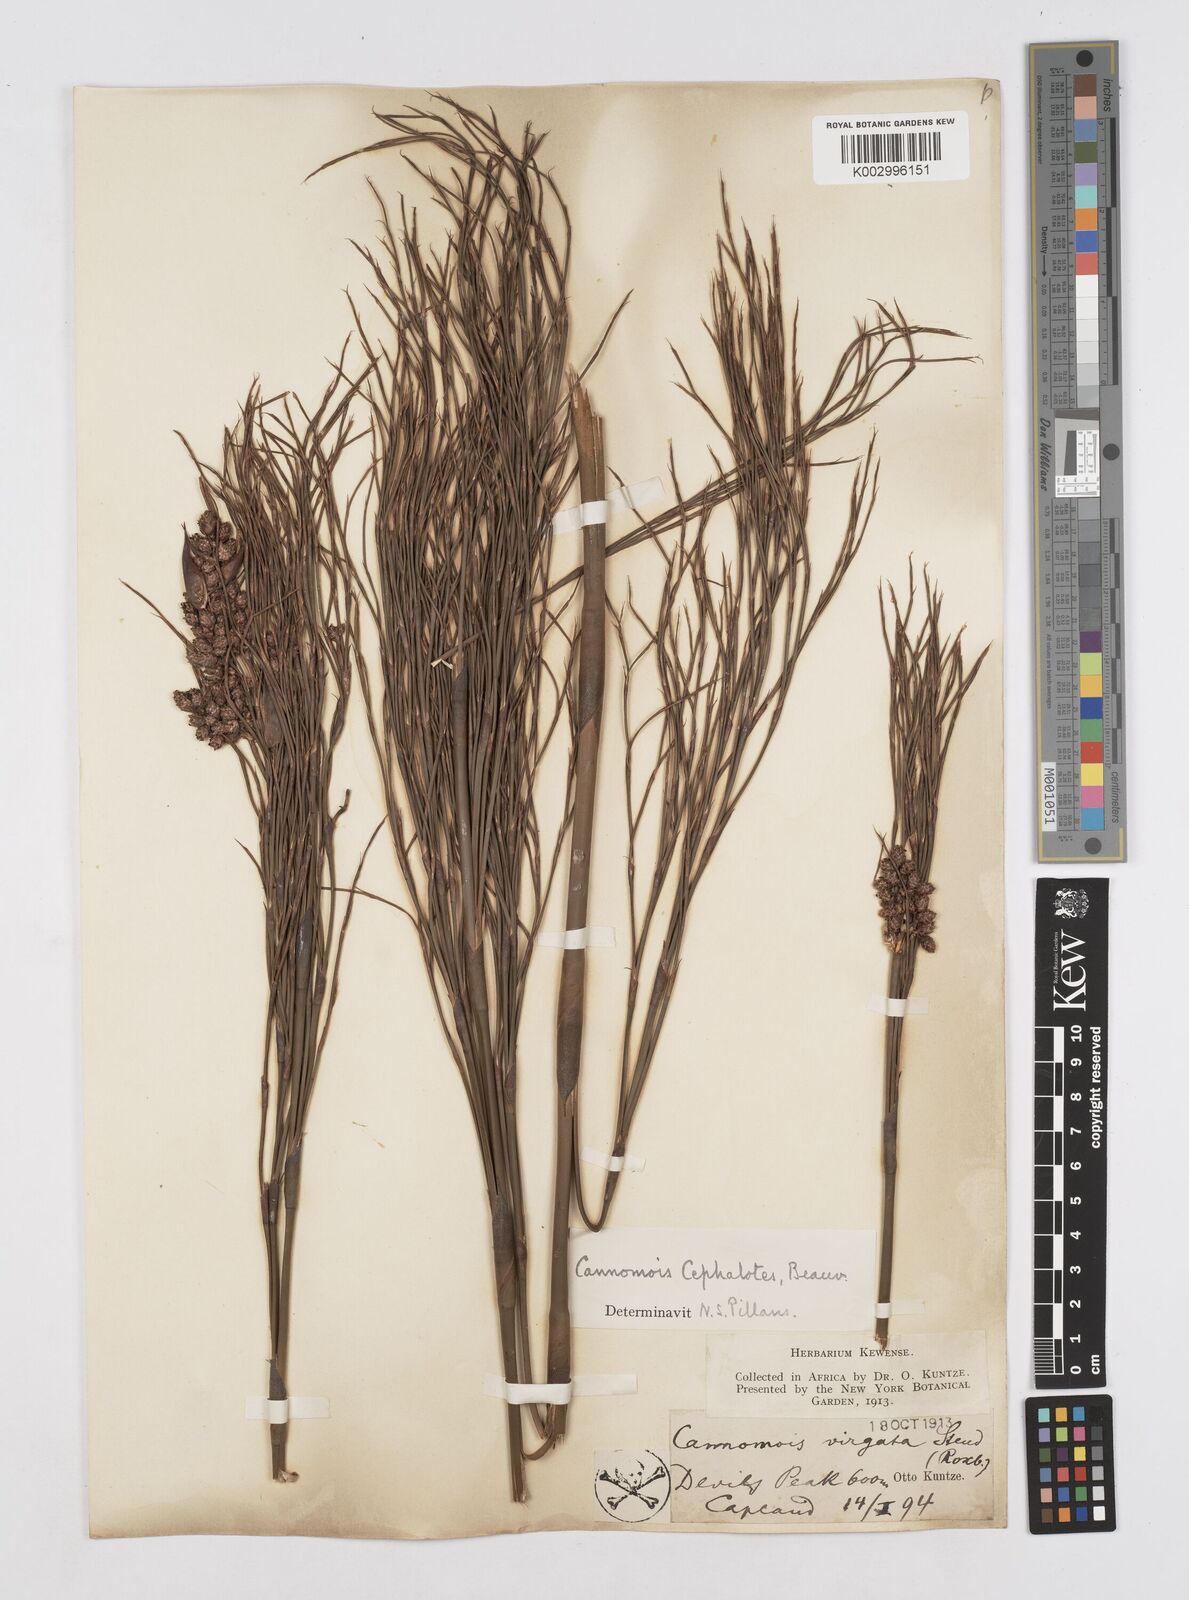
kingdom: Plantae
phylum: Tracheophyta
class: Liliopsida
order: Poales
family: Restionaceae
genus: Cannomois
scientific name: Cannomois virgata
